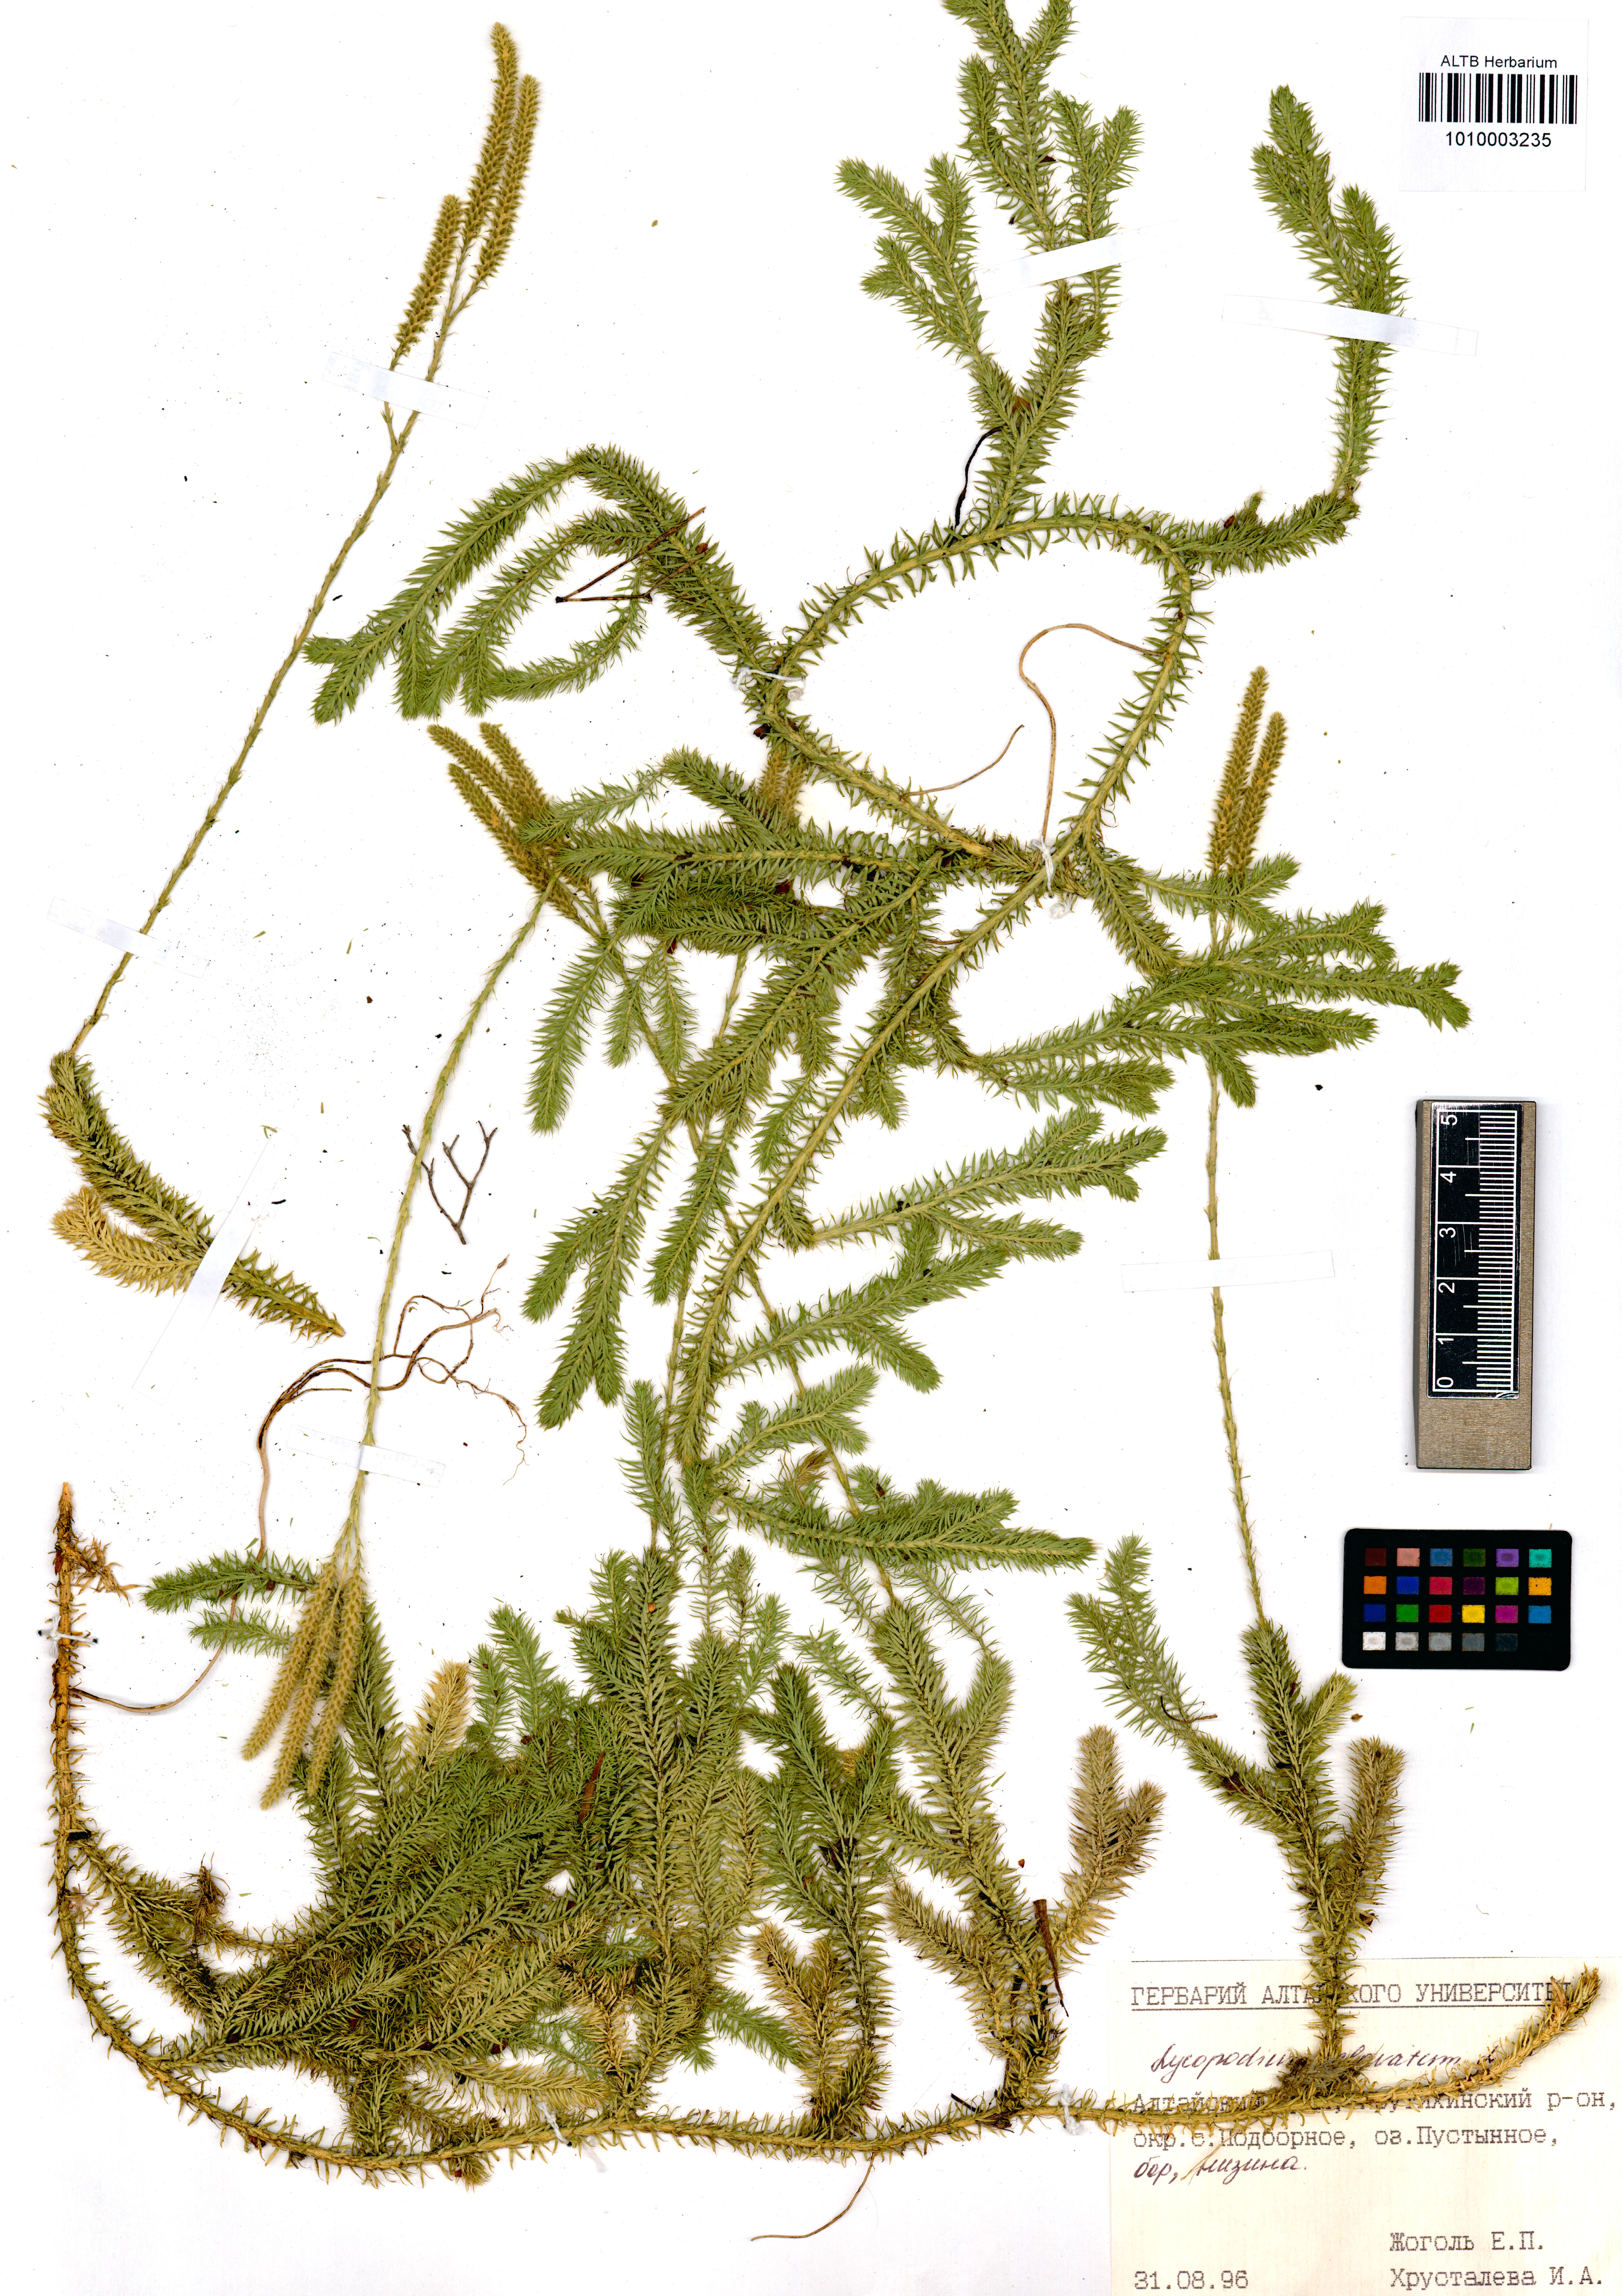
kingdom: Plantae
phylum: Tracheophyta
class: Lycopodiopsida
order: Lycopodiales
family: Lycopodiaceae
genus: Lycopodium
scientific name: Lycopodium clavatum
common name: Stag's-horn clubmoss
